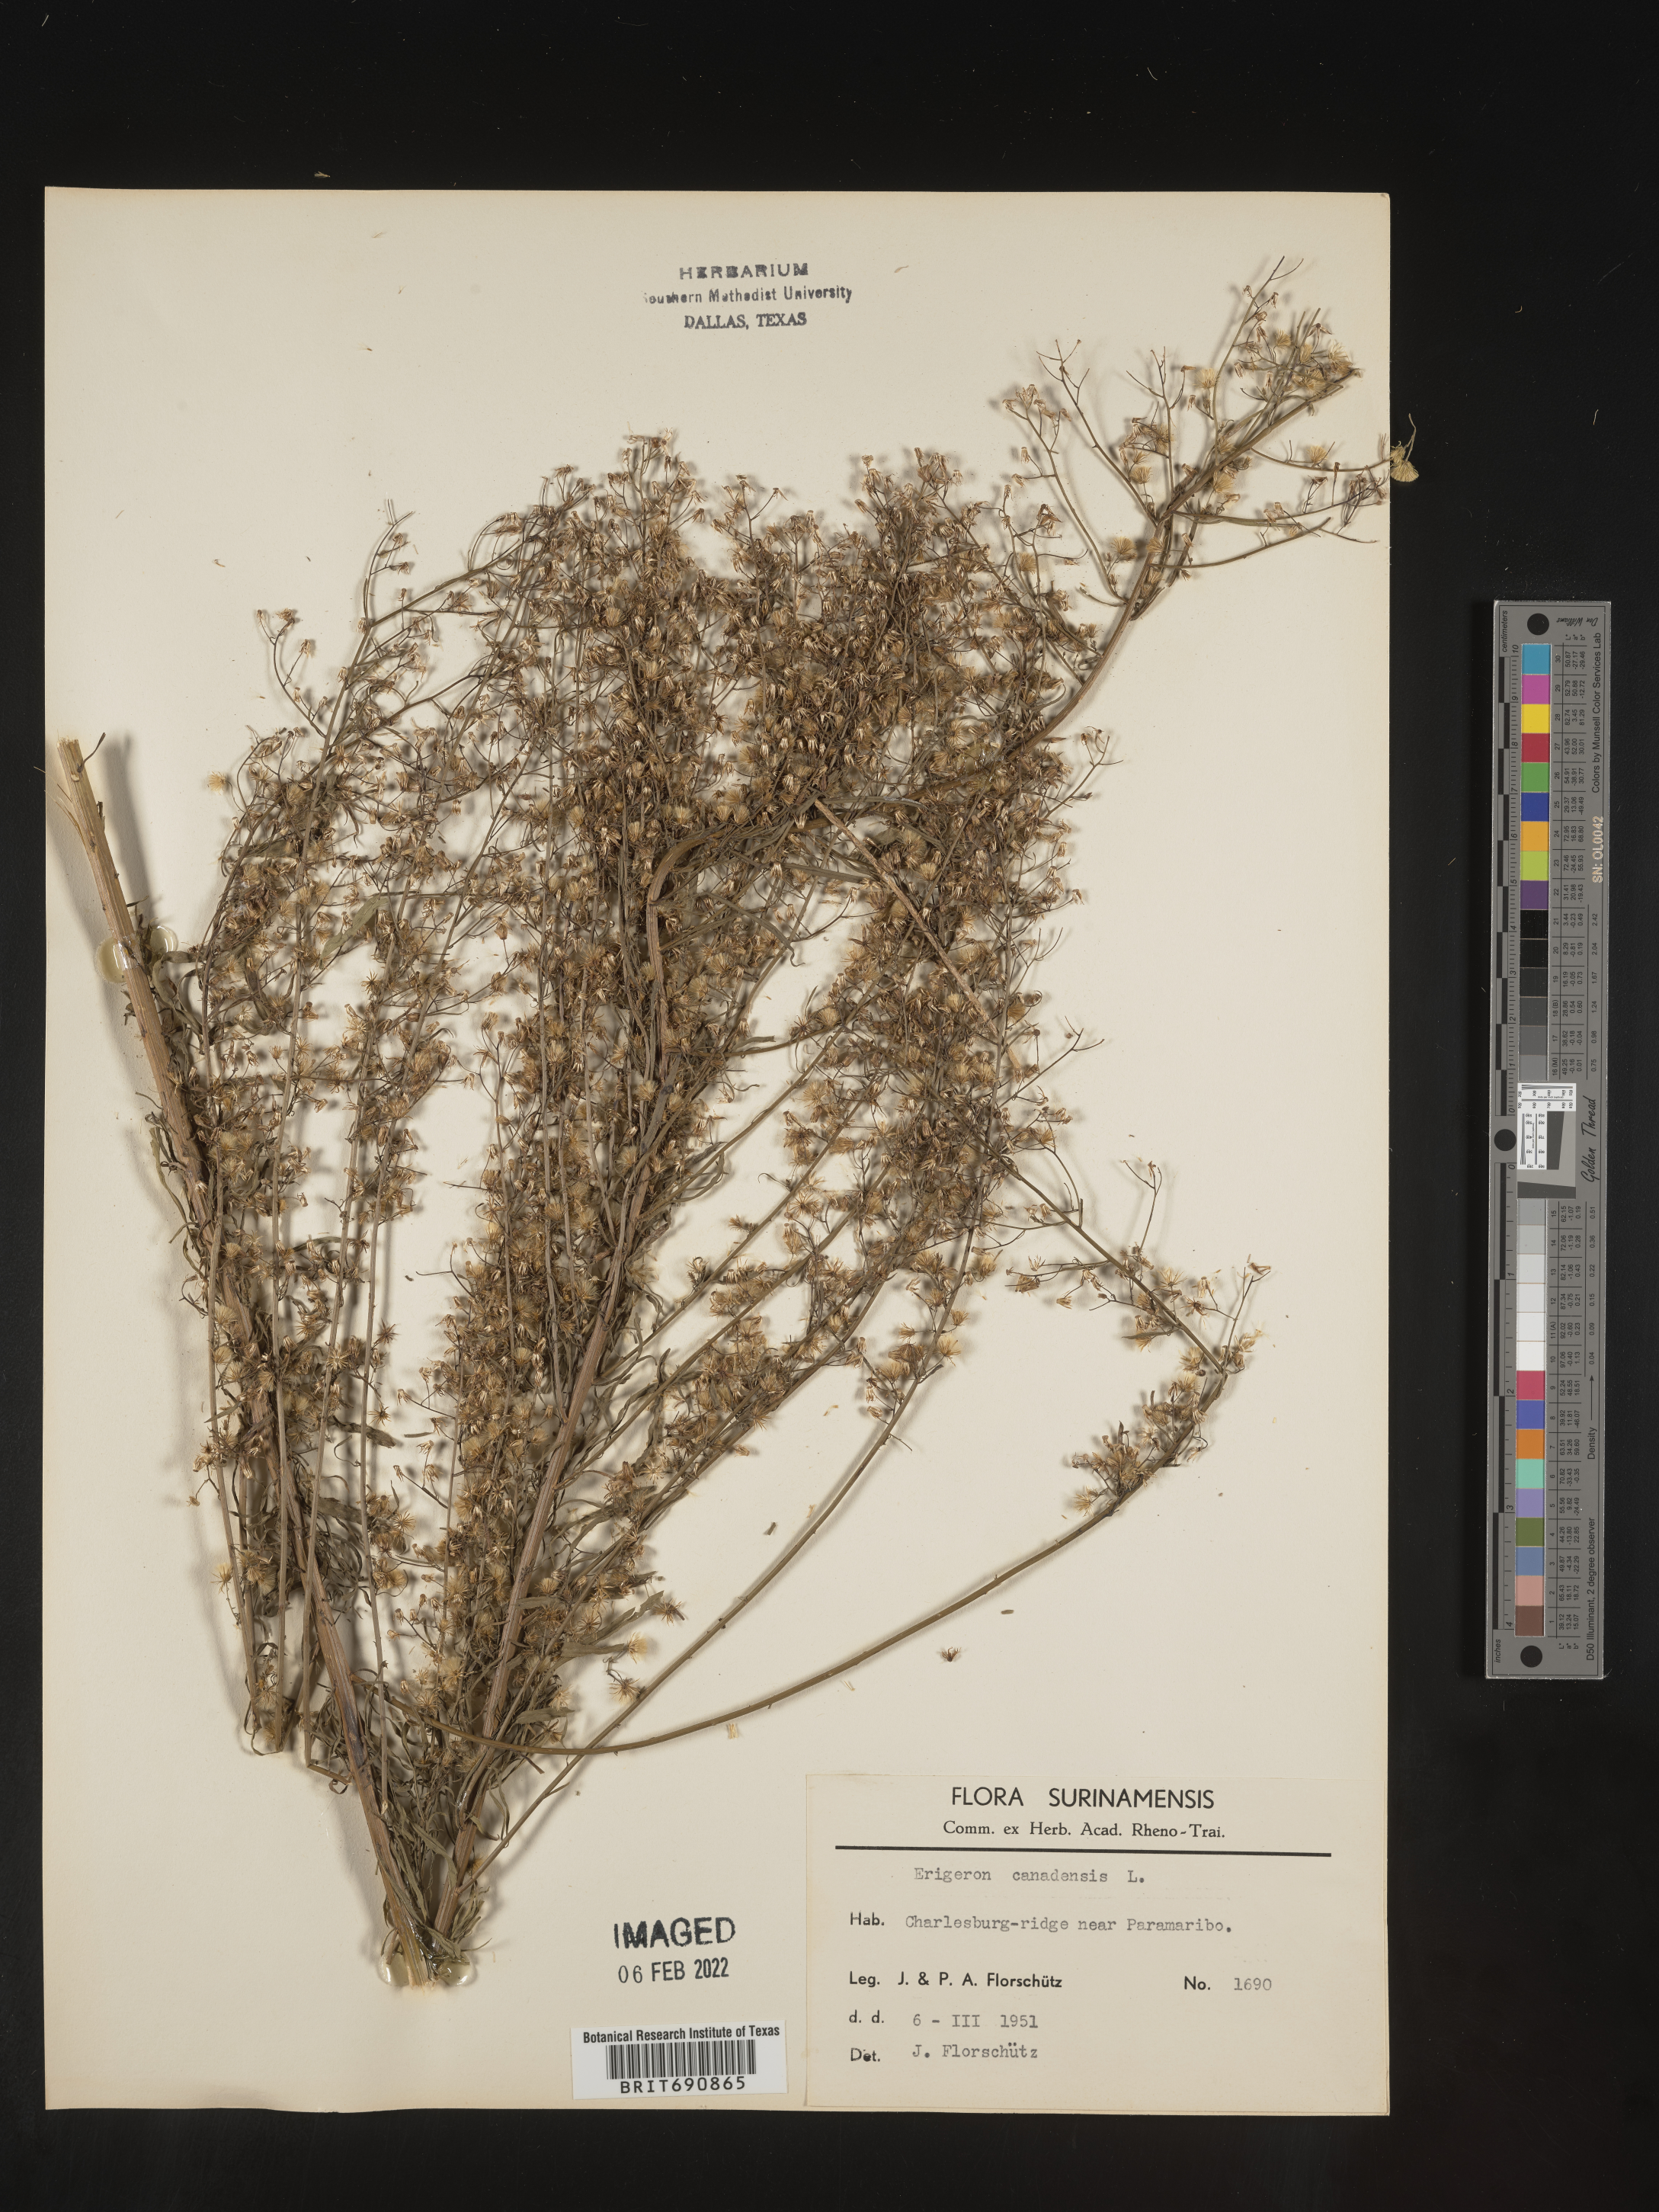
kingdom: Plantae
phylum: Tracheophyta
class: Magnoliopsida
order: Asterales
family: Asteraceae
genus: Conyza
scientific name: Conyza
